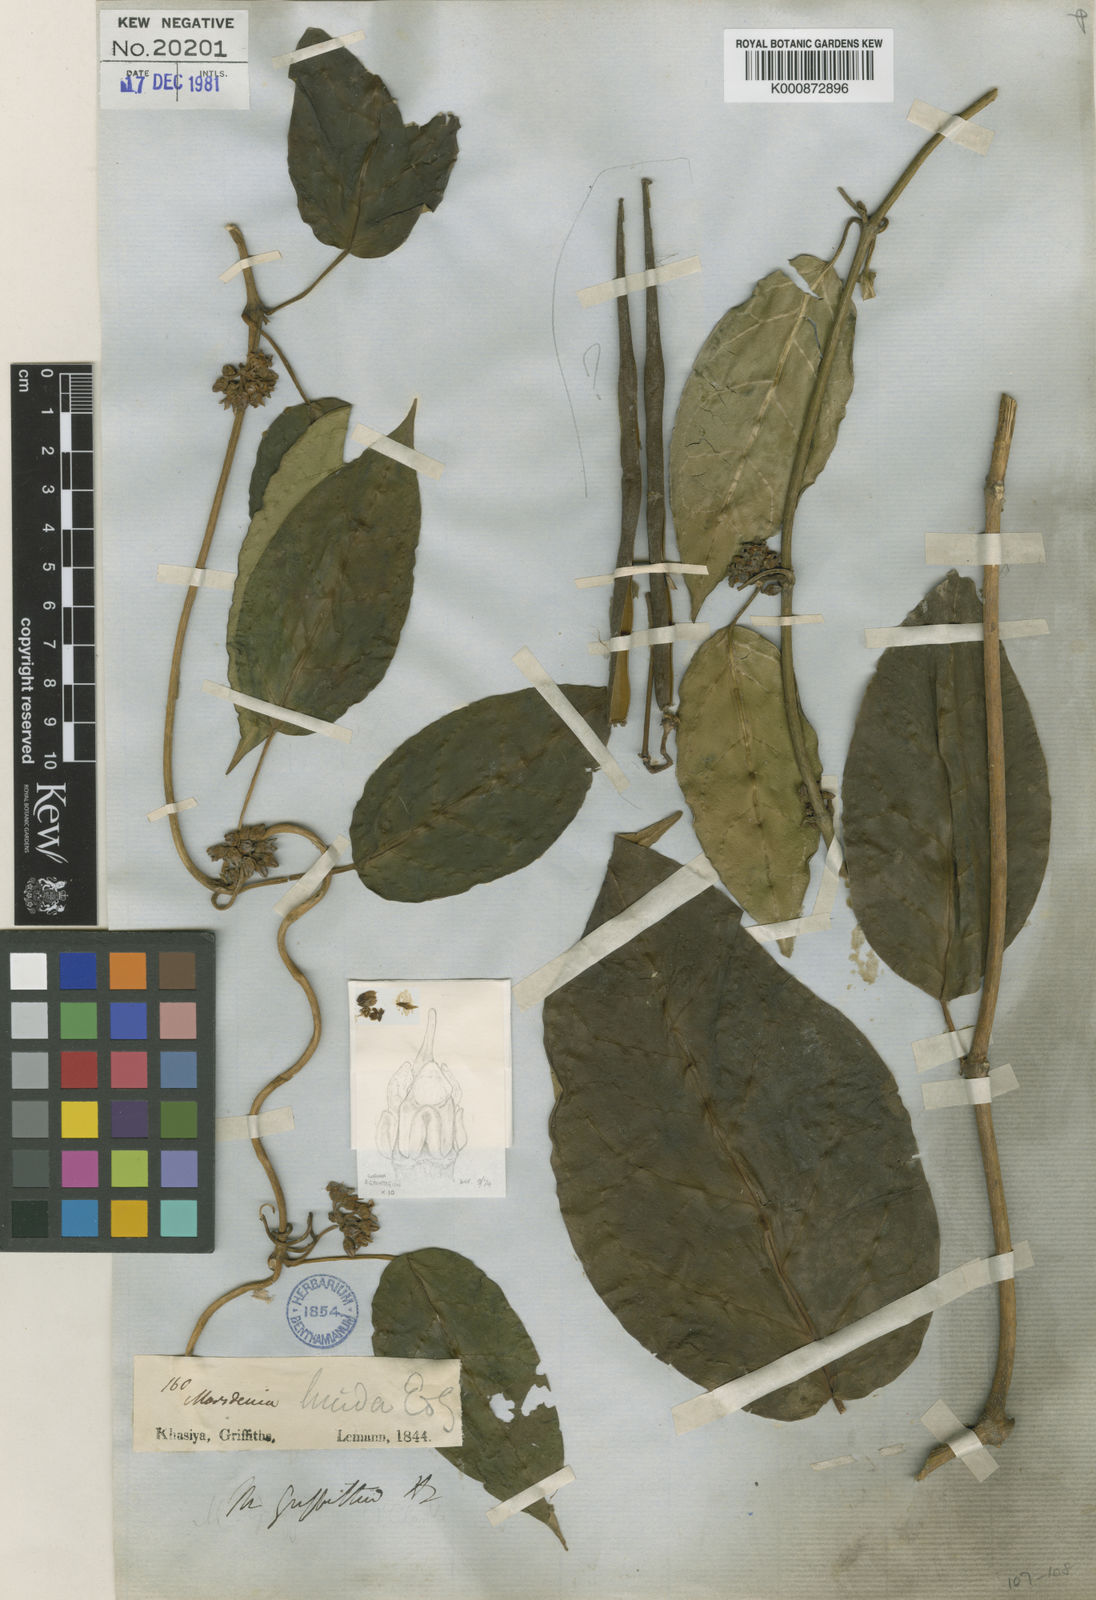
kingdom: Plantae
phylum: Tracheophyta
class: Magnoliopsida
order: Gentianales
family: Apocynaceae
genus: Sinomarsdenia
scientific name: Sinomarsdenia griffithii
